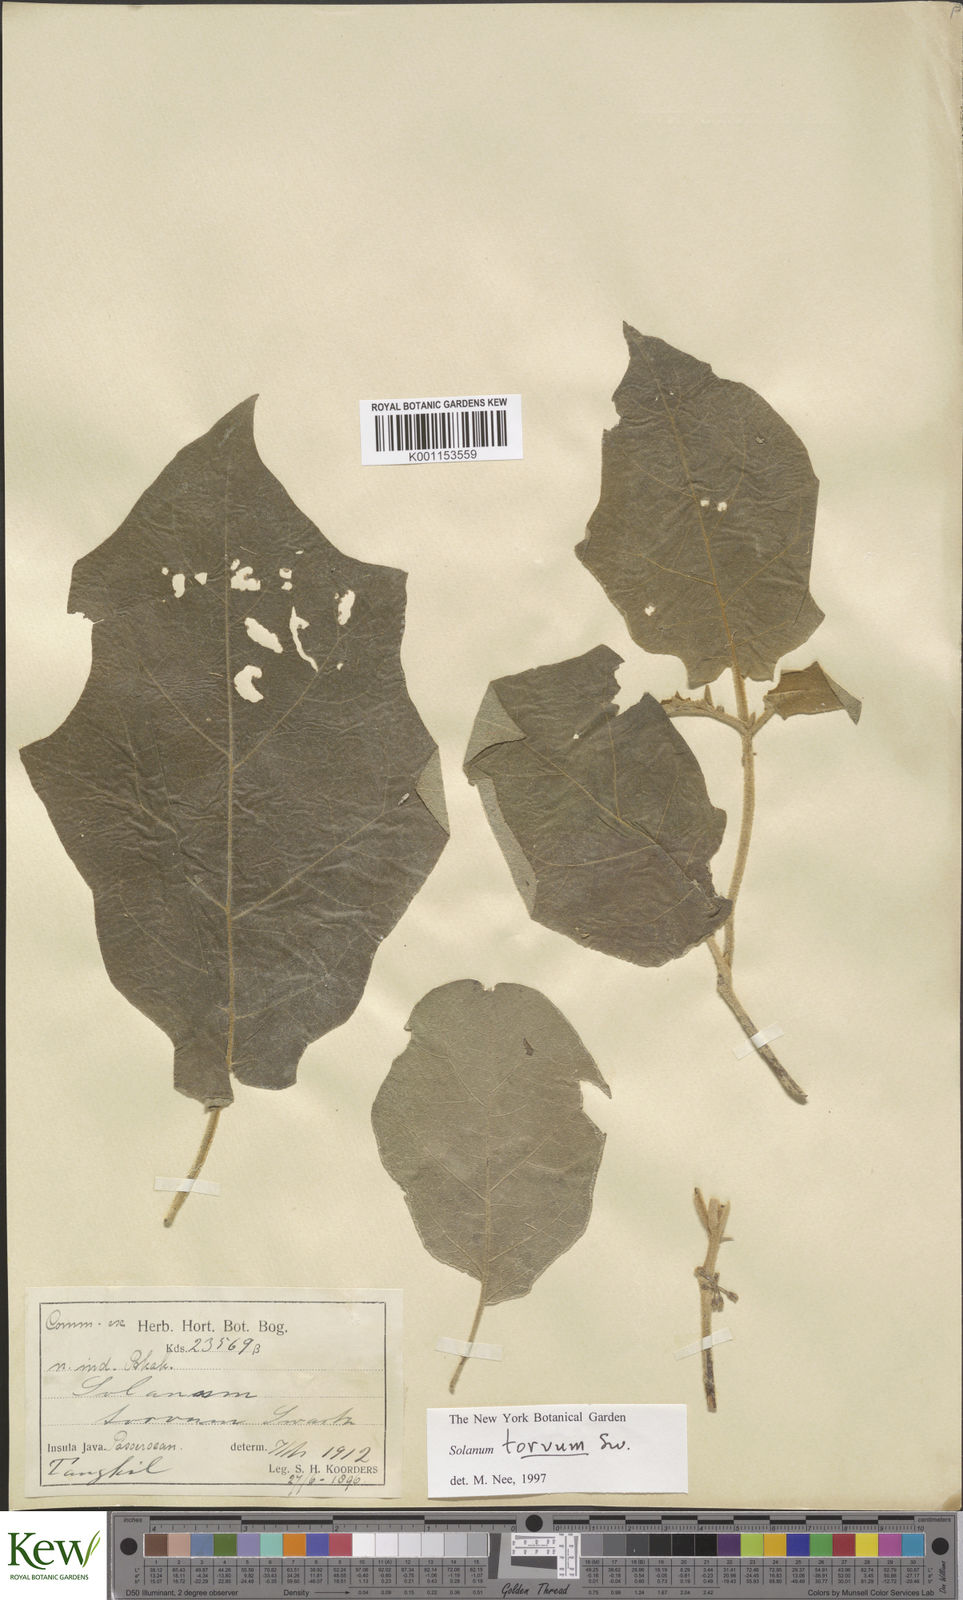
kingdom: Plantae
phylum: Tracheophyta
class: Magnoliopsida
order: Solanales
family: Solanaceae
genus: Solanum
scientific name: Solanum torvum
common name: Turkey berry
